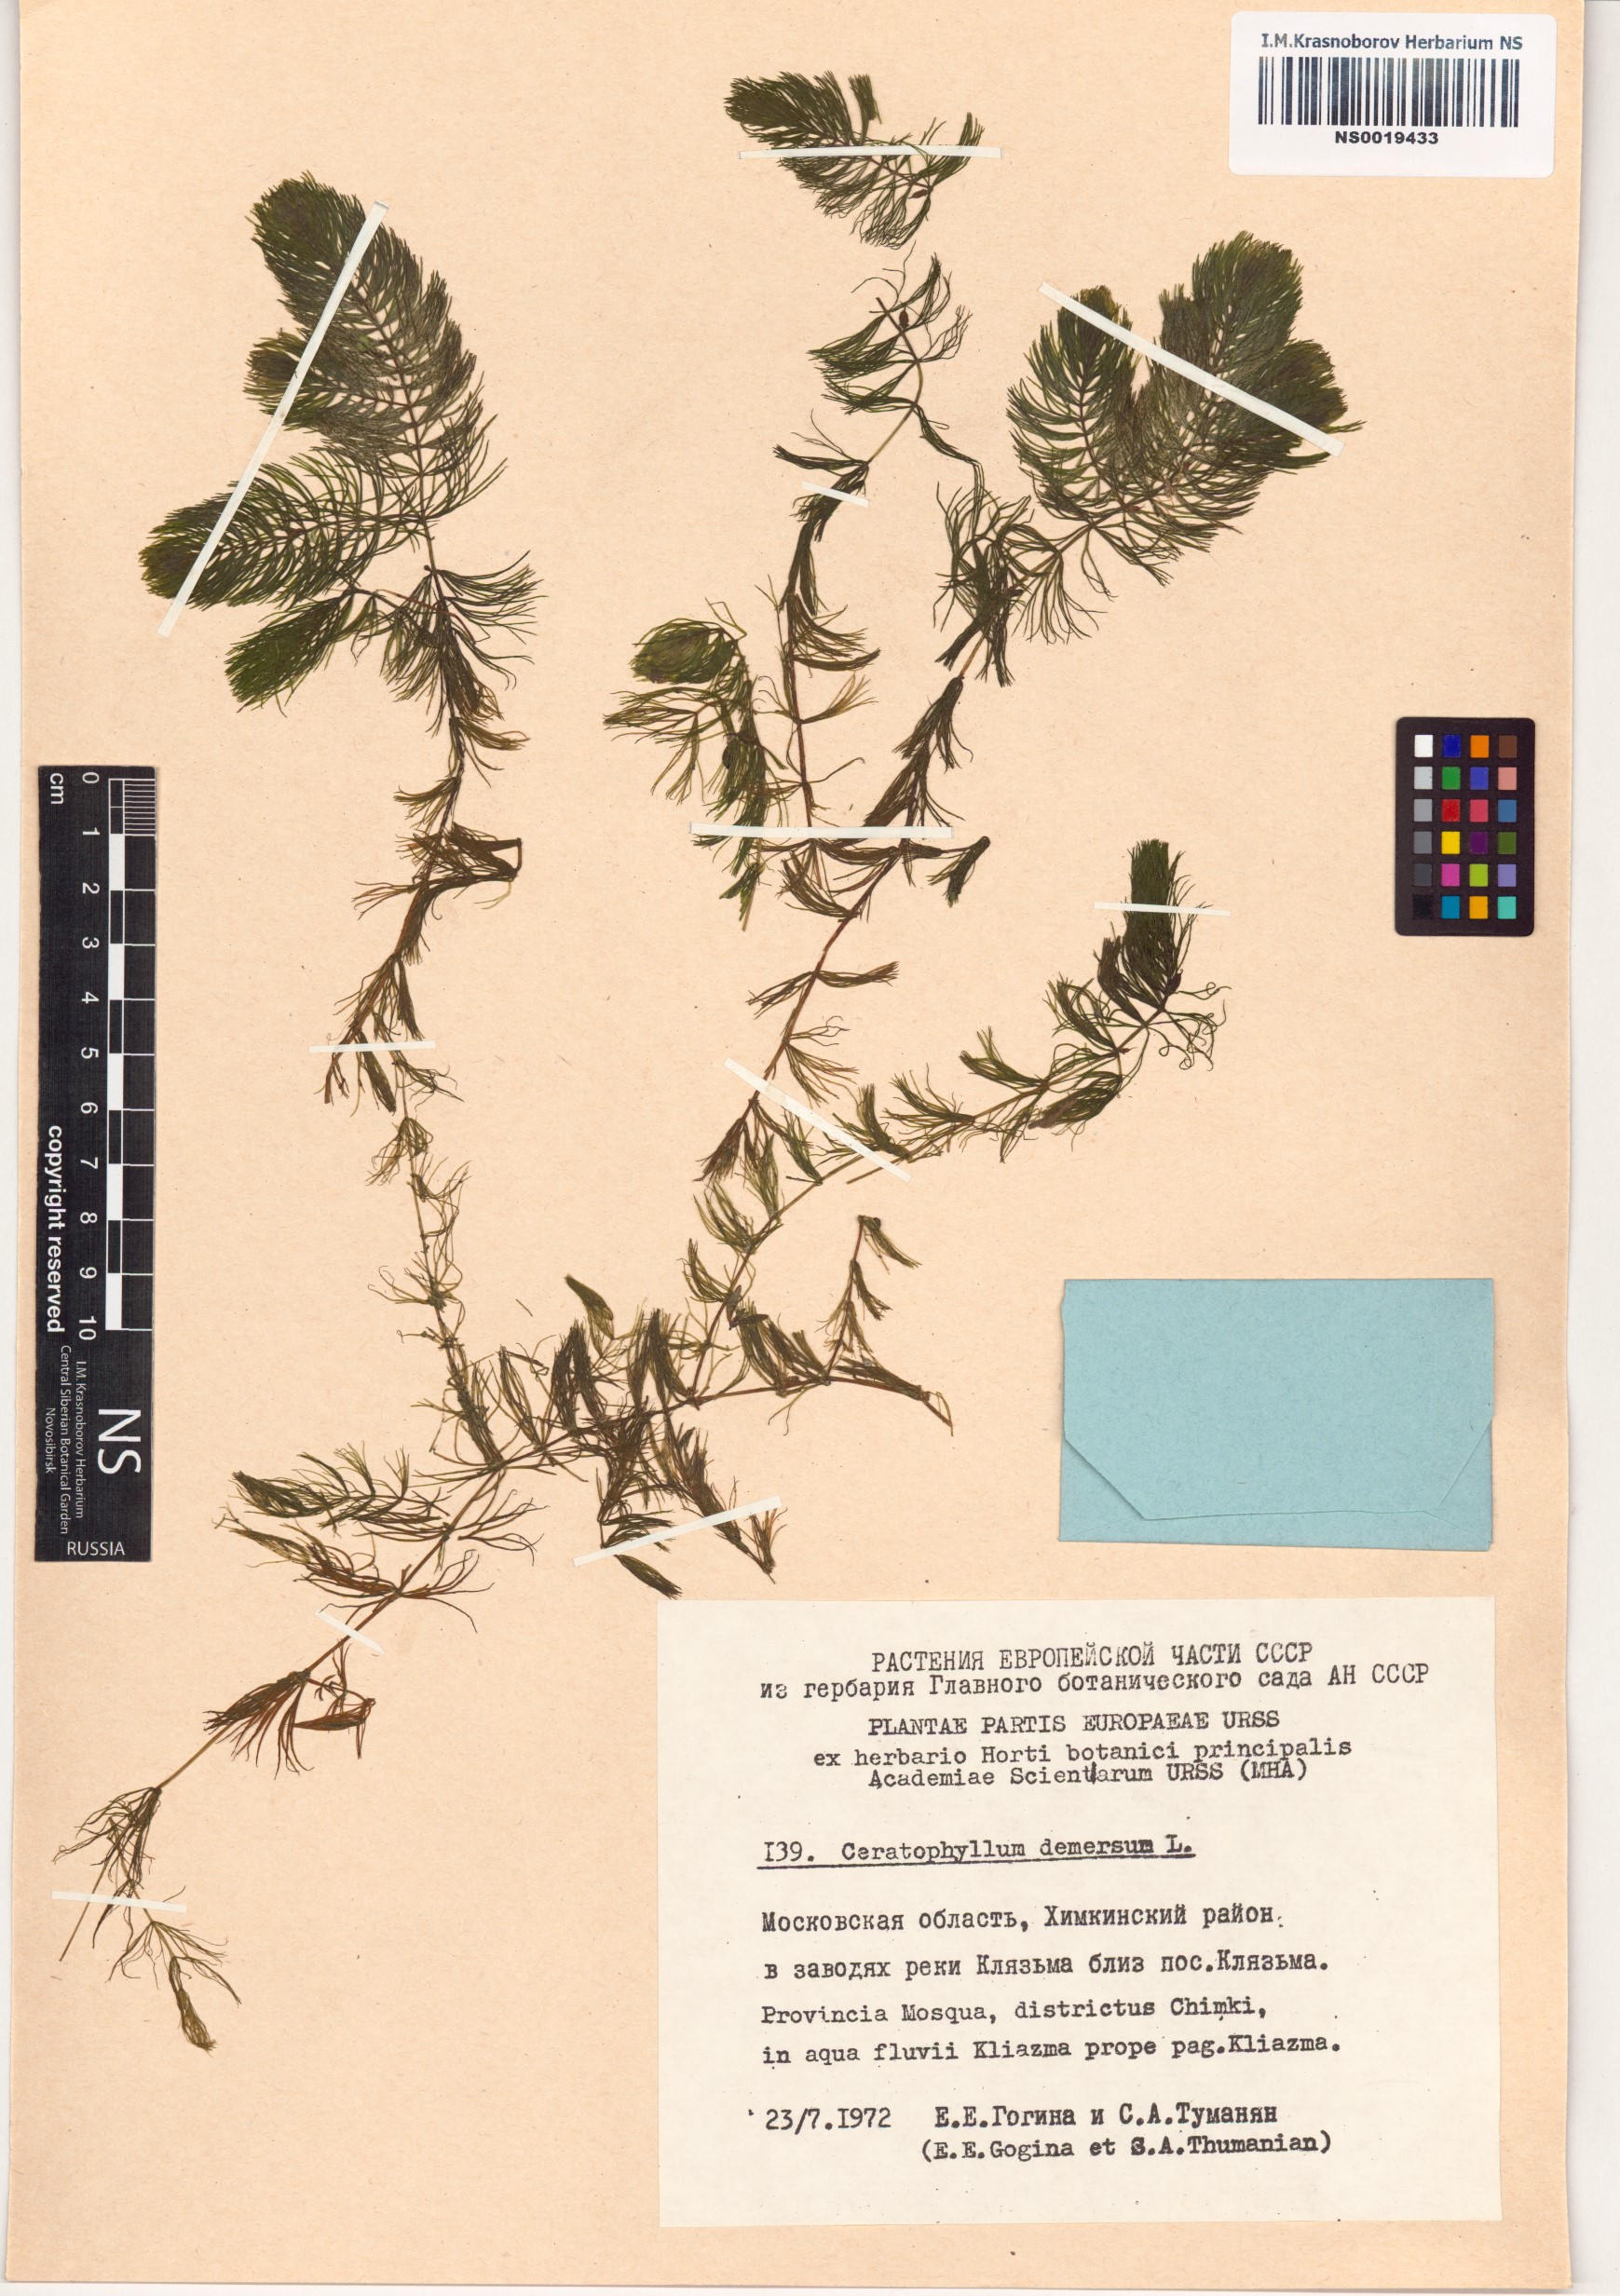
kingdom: Plantae
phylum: Tracheophyta
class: Magnoliopsida
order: Ceratophyllales
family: Ceratophyllaceae
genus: Ceratophyllum
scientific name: Ceratophyllum demersum
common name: Rigid hornwort
